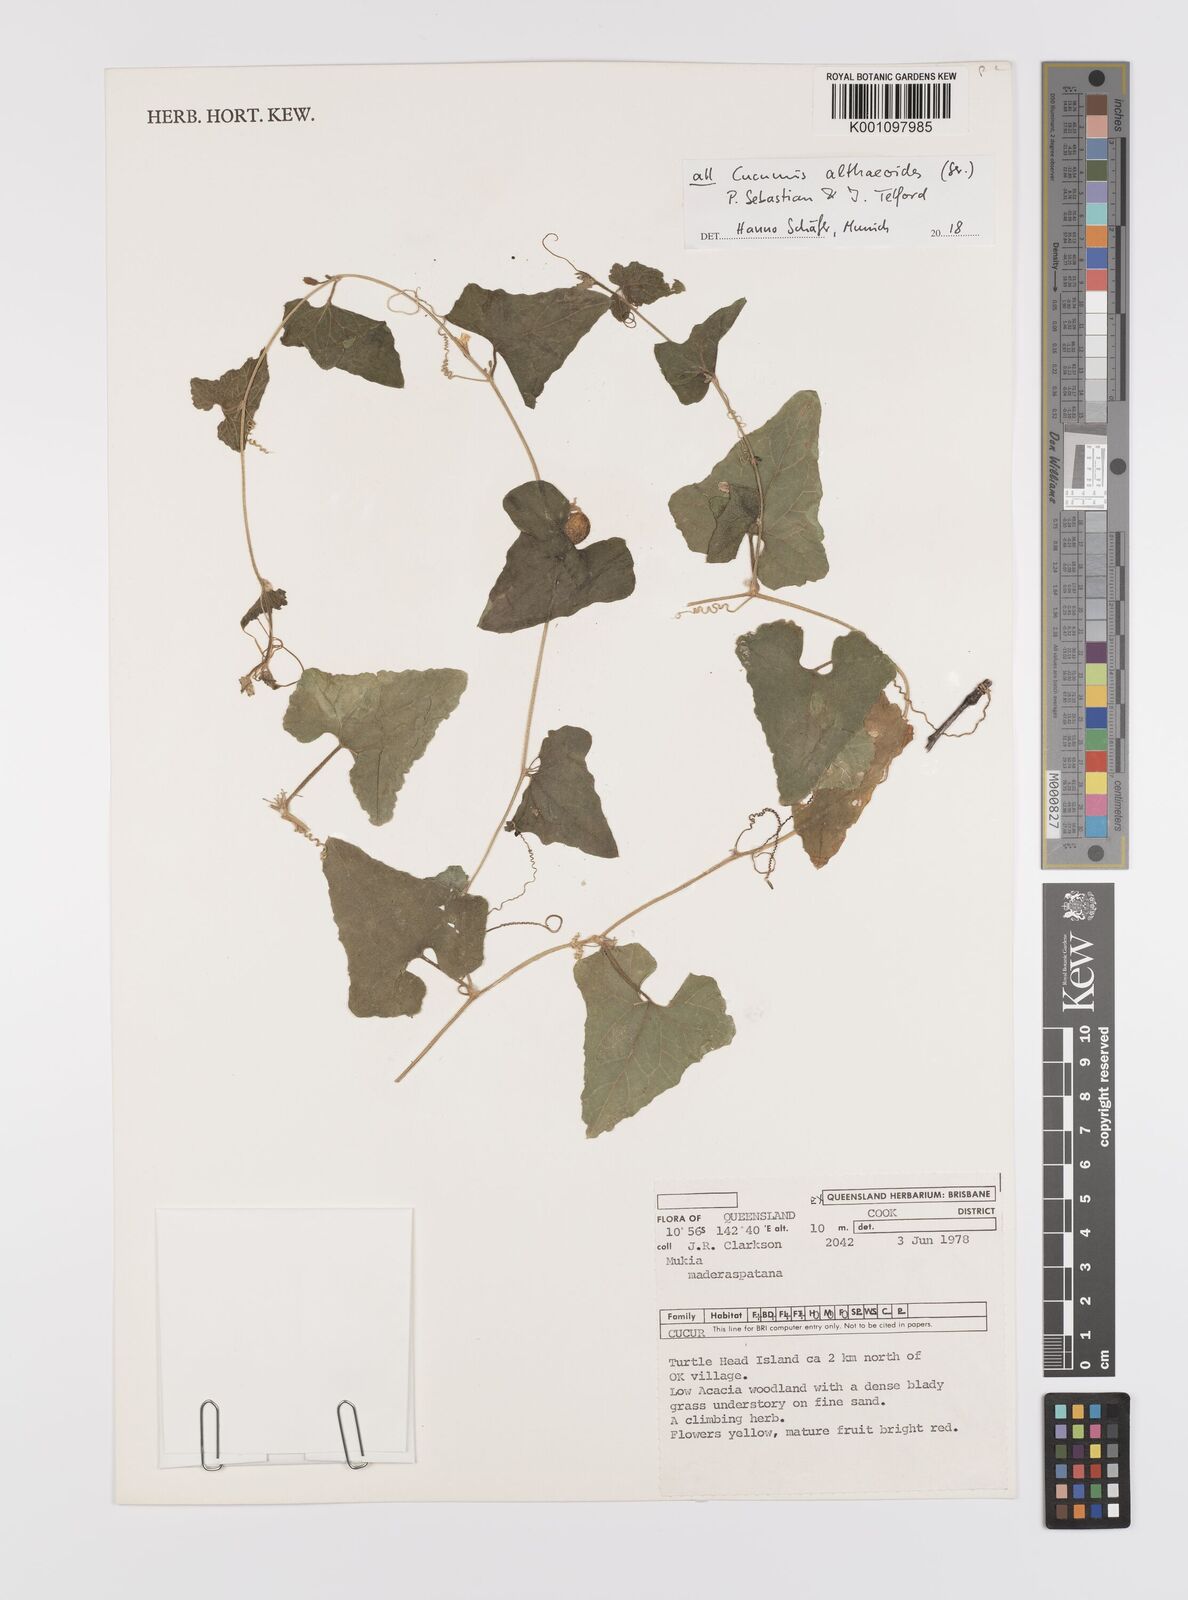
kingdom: Plantae
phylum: Tracheophyta
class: Magnoliopsida
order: Cucurbitales
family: Cucurbitaceae
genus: Cucumis
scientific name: Cucumis althaeoides
